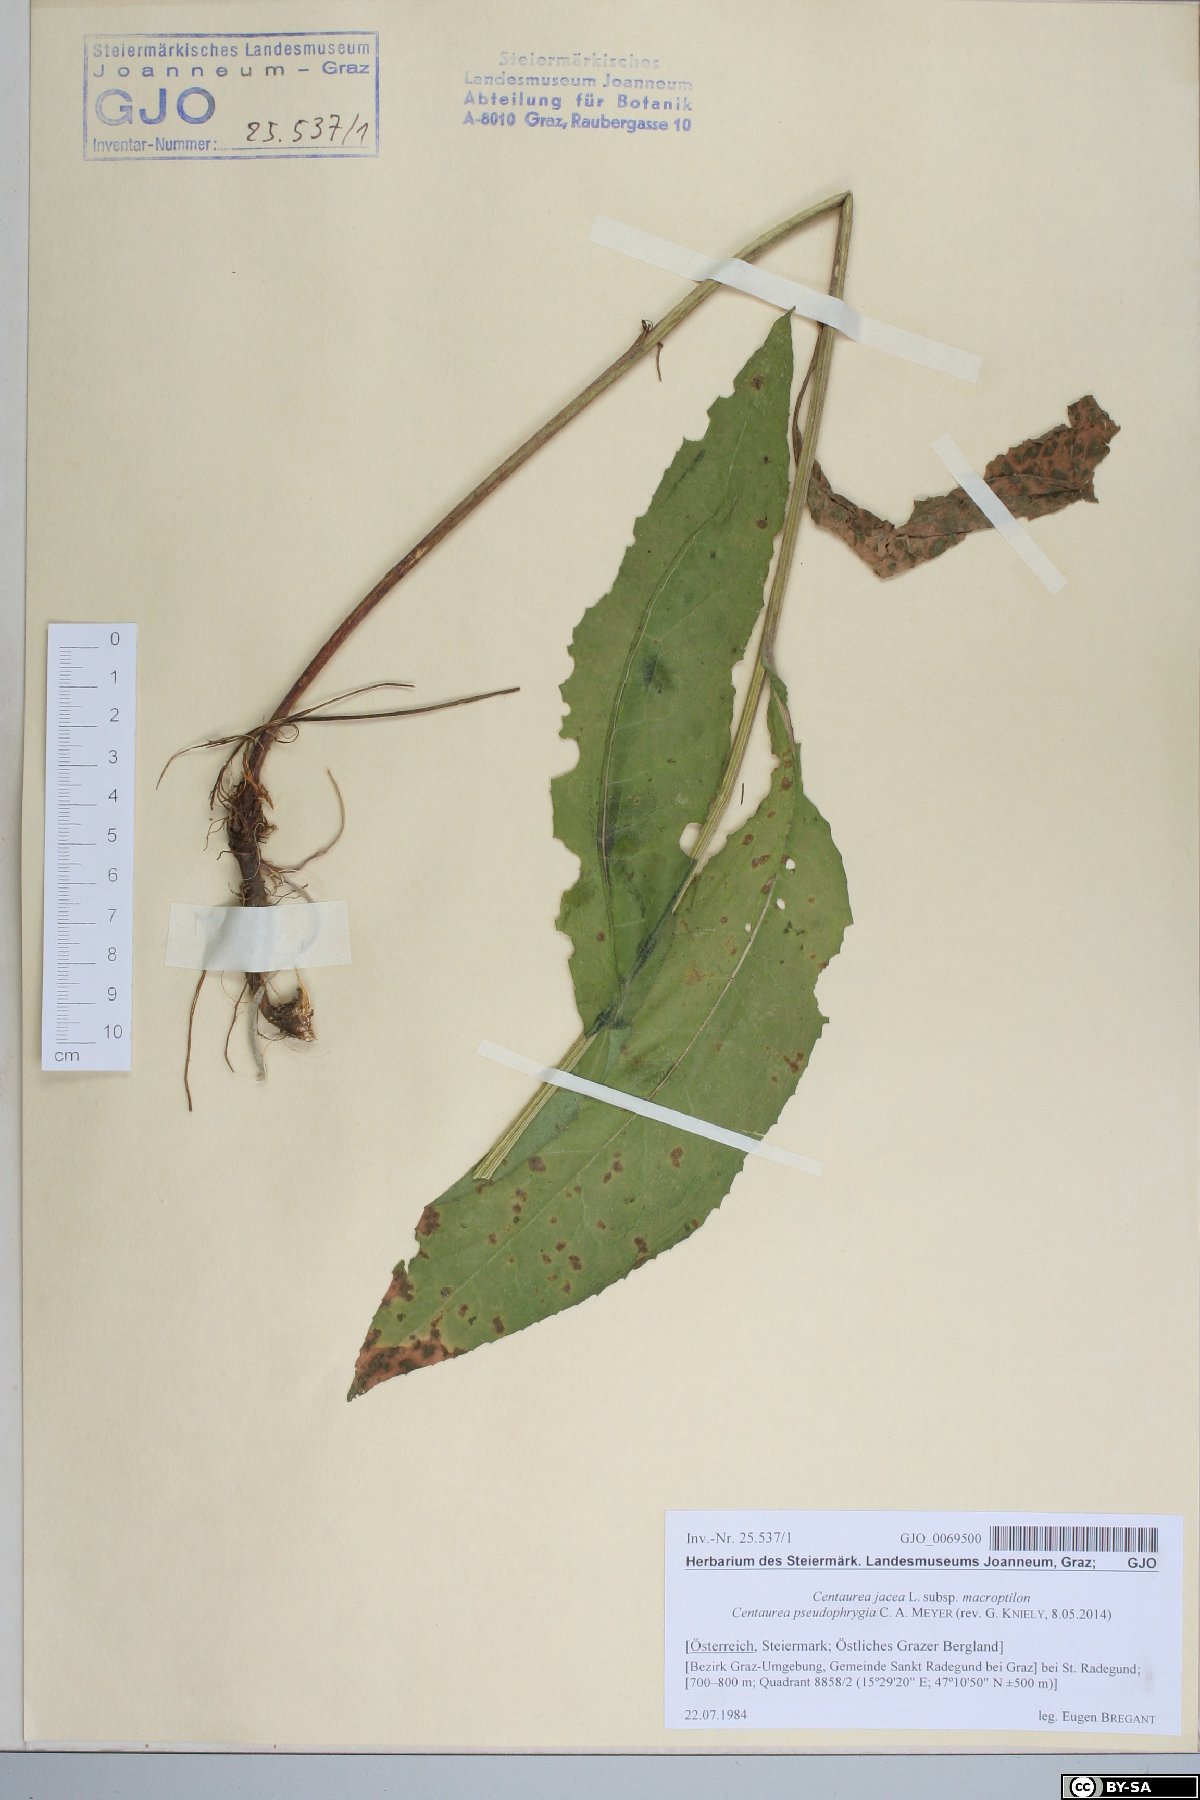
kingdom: Plantae
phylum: Tracheophyta
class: Magnoliopsida
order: Asterales
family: Asteraceae
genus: Centaurea
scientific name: Centaurea pseudophrygia
